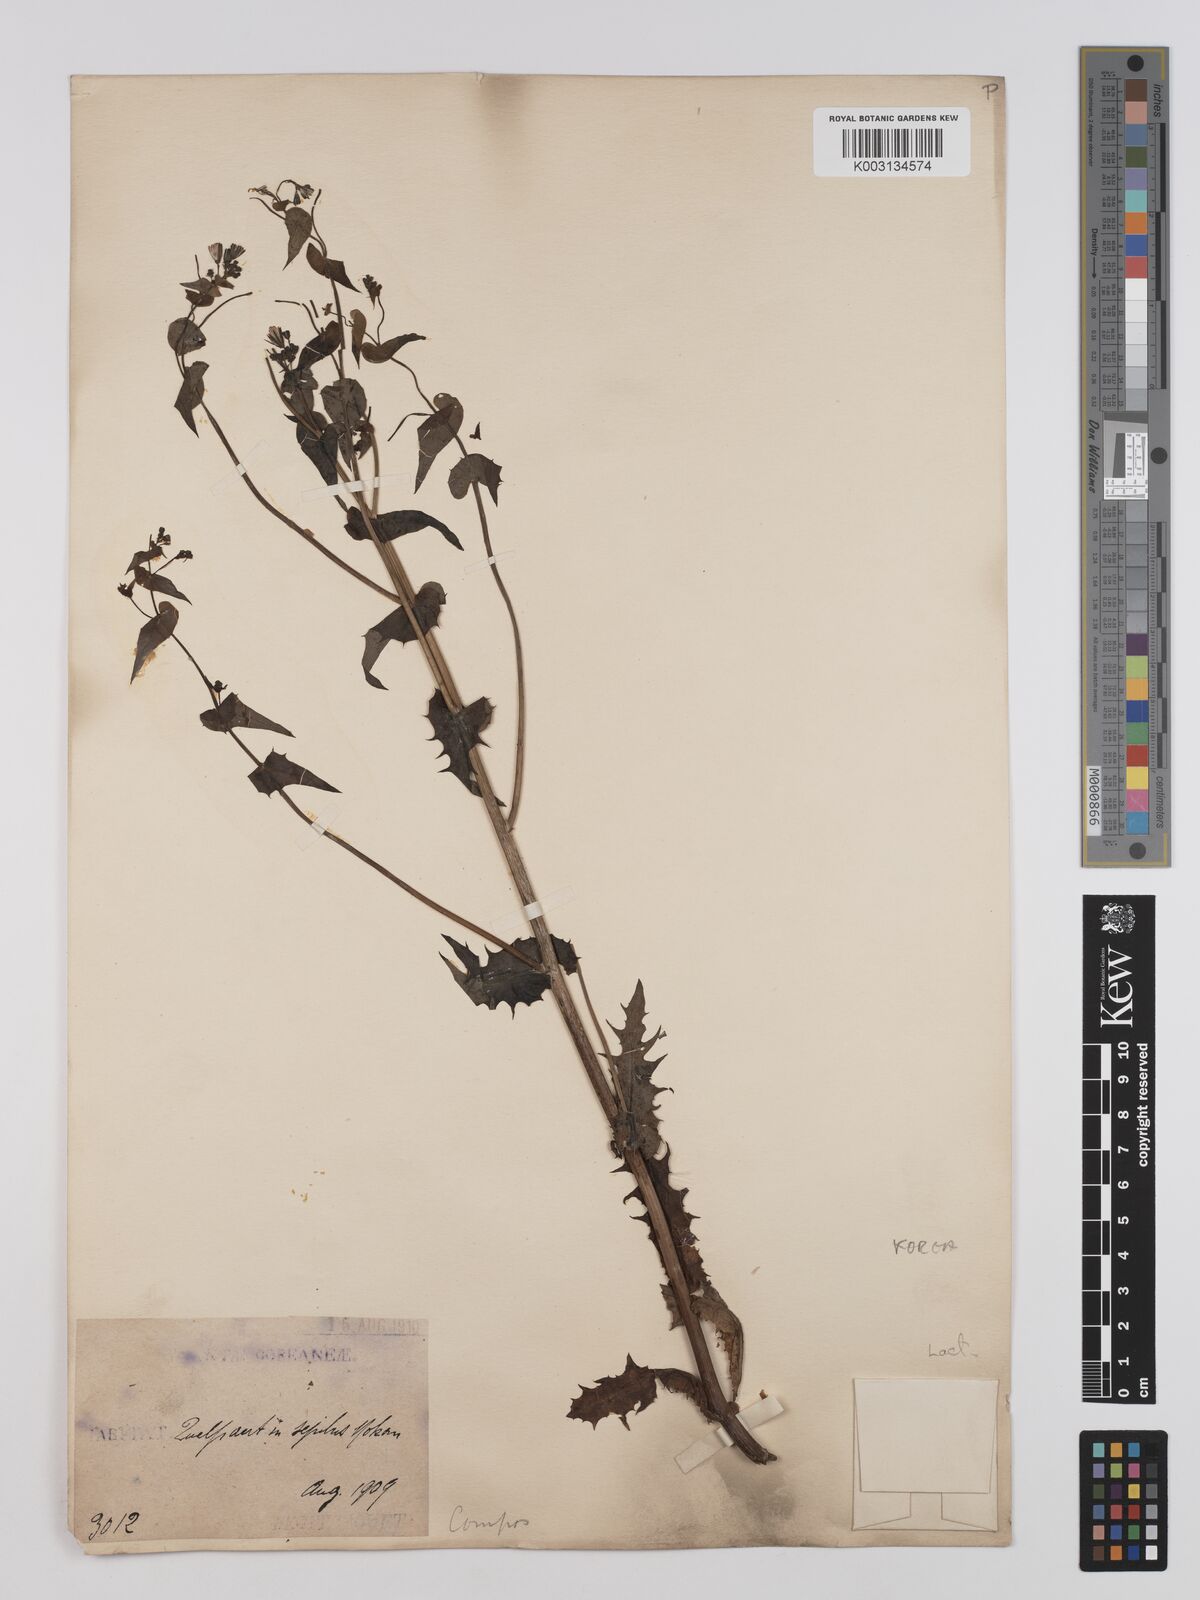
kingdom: Plantae
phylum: Tracheophyta
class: Magnoliopsida
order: Asterales
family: Asteraceae
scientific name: Asteraceae
